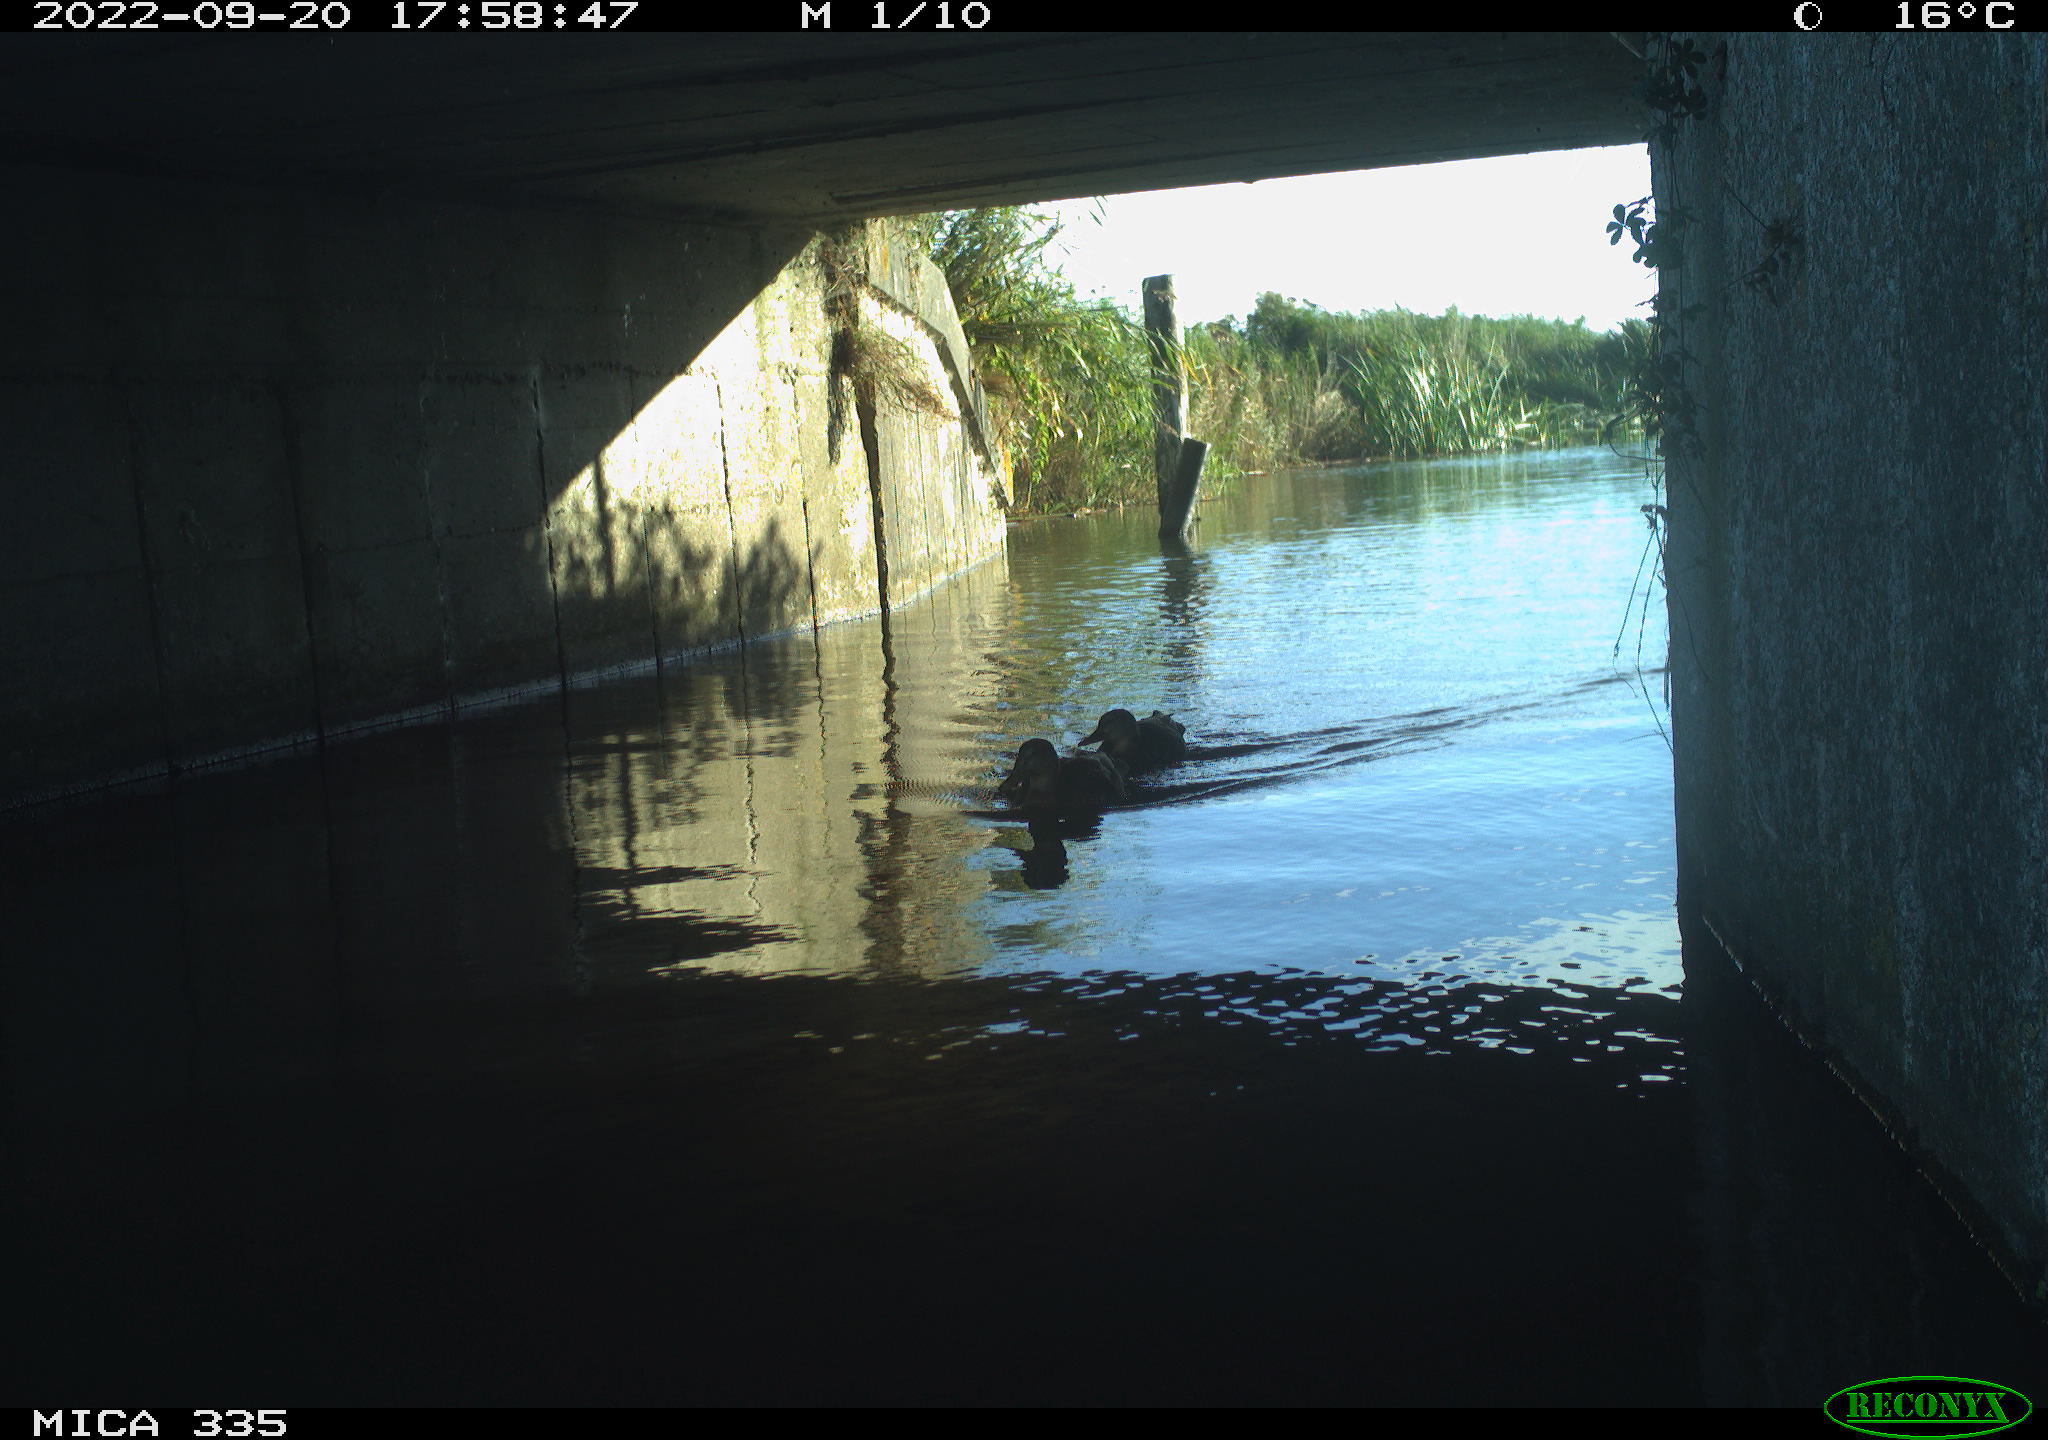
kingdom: Animalia
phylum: Chordata
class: Aves
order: Anseriformes
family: Anatidae
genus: Anas
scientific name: Anas platyrhynchos
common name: Mallard
